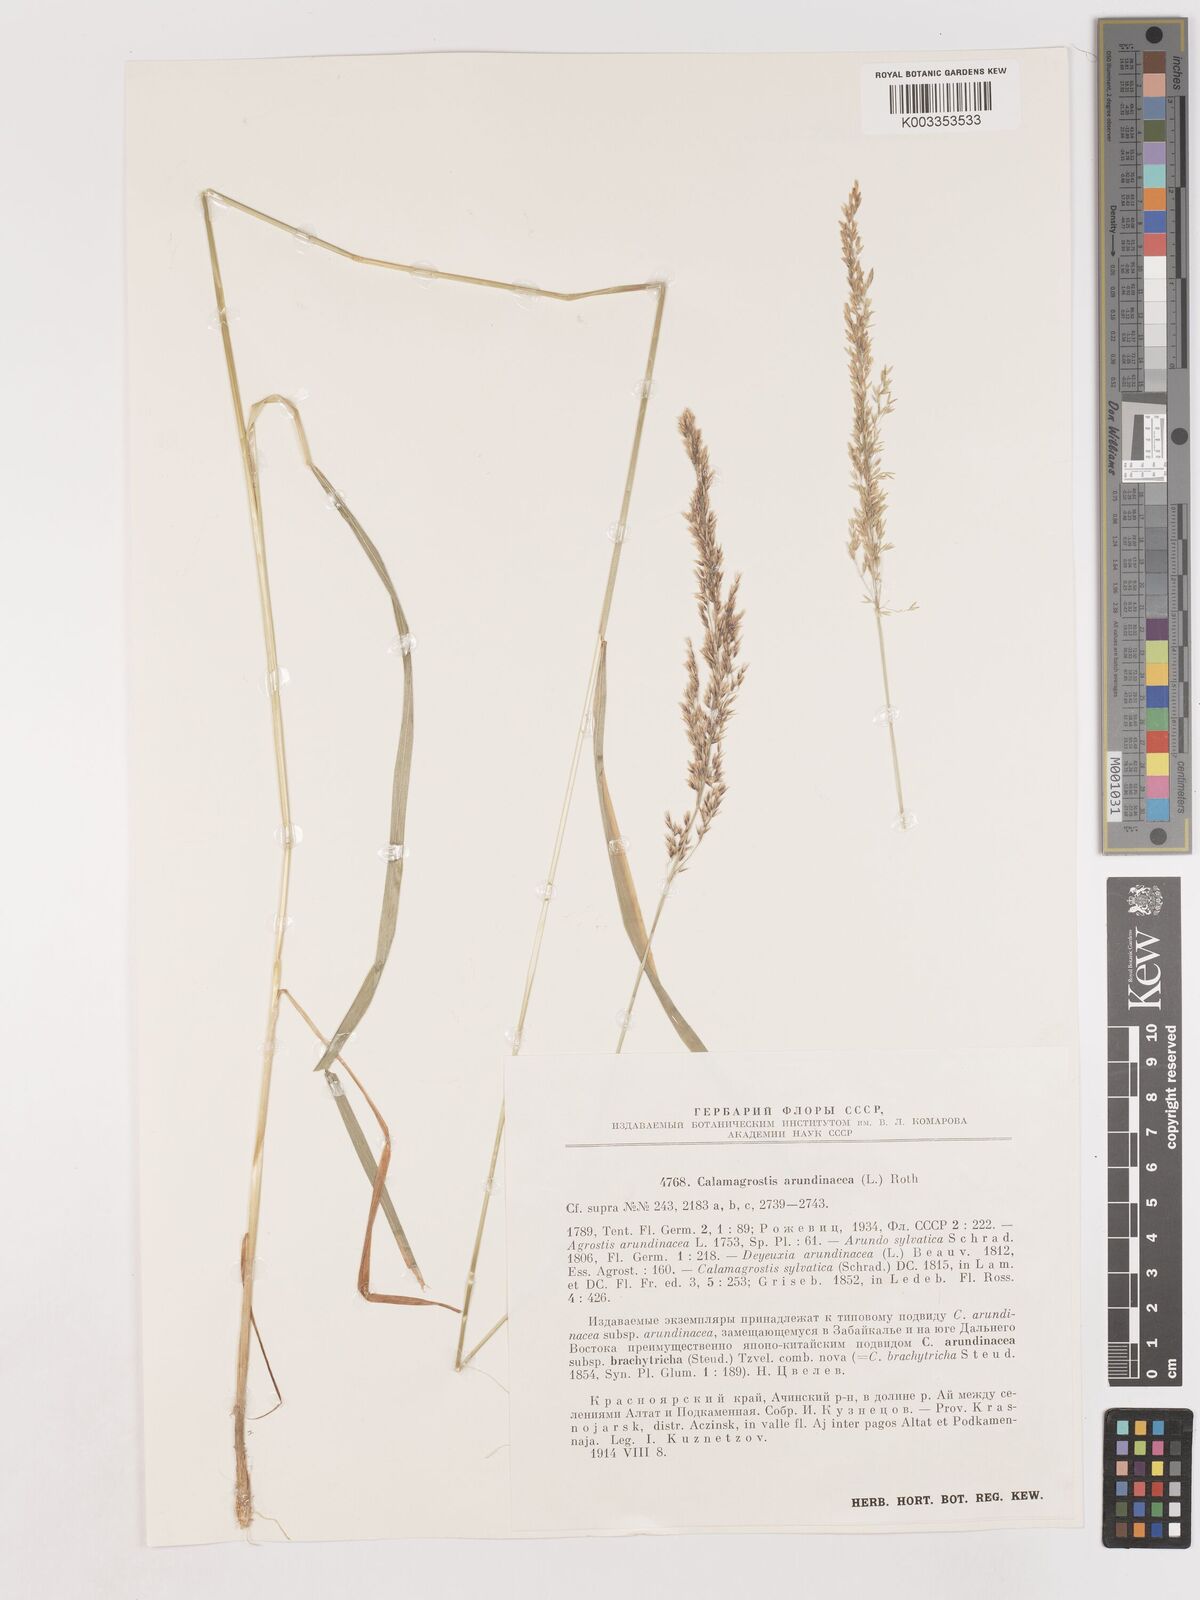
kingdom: Plantae
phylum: Tracheophyta
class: Liliopsida
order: Poales
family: Poaceae
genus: Calamagrostis
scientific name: Calamagrostis
